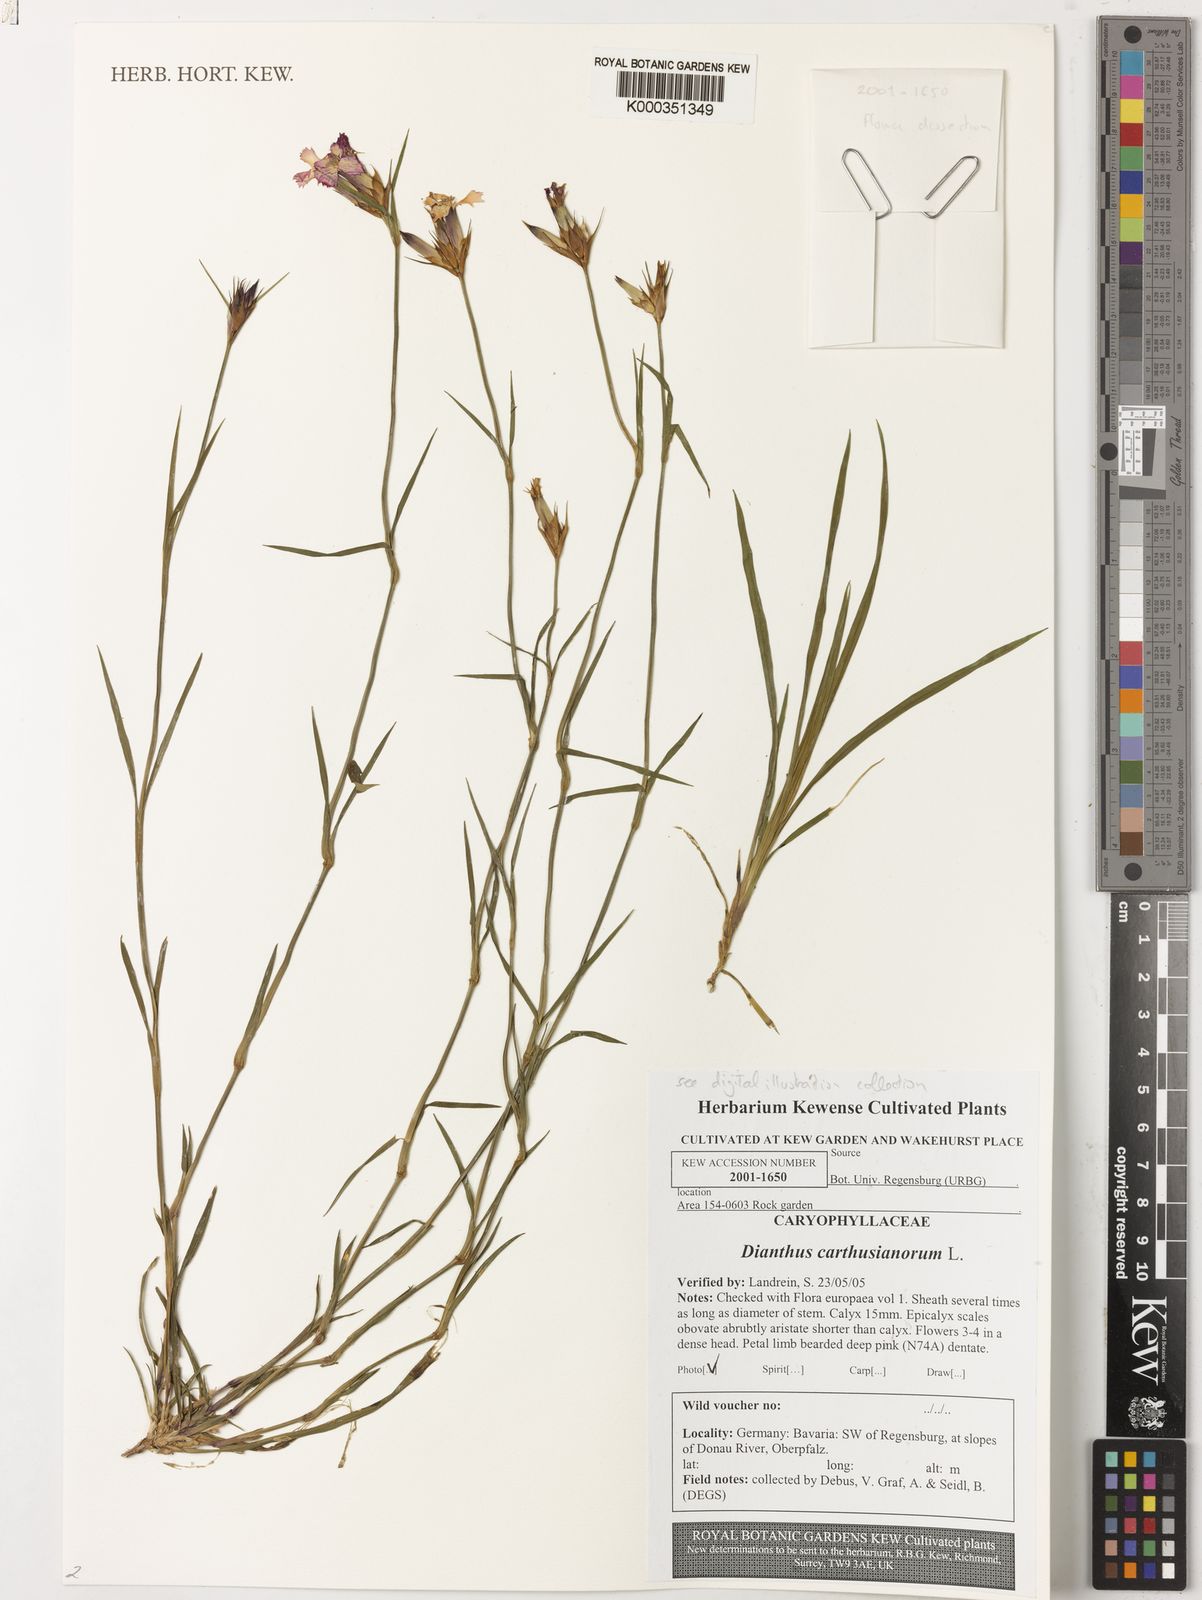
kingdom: Plantae
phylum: Tracheophyta
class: Magnoliopsida
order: Caryophyllales
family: Caryophyllaceae
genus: Dianthus
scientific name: Dianthus carthusianorum
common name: Carthusian pink
